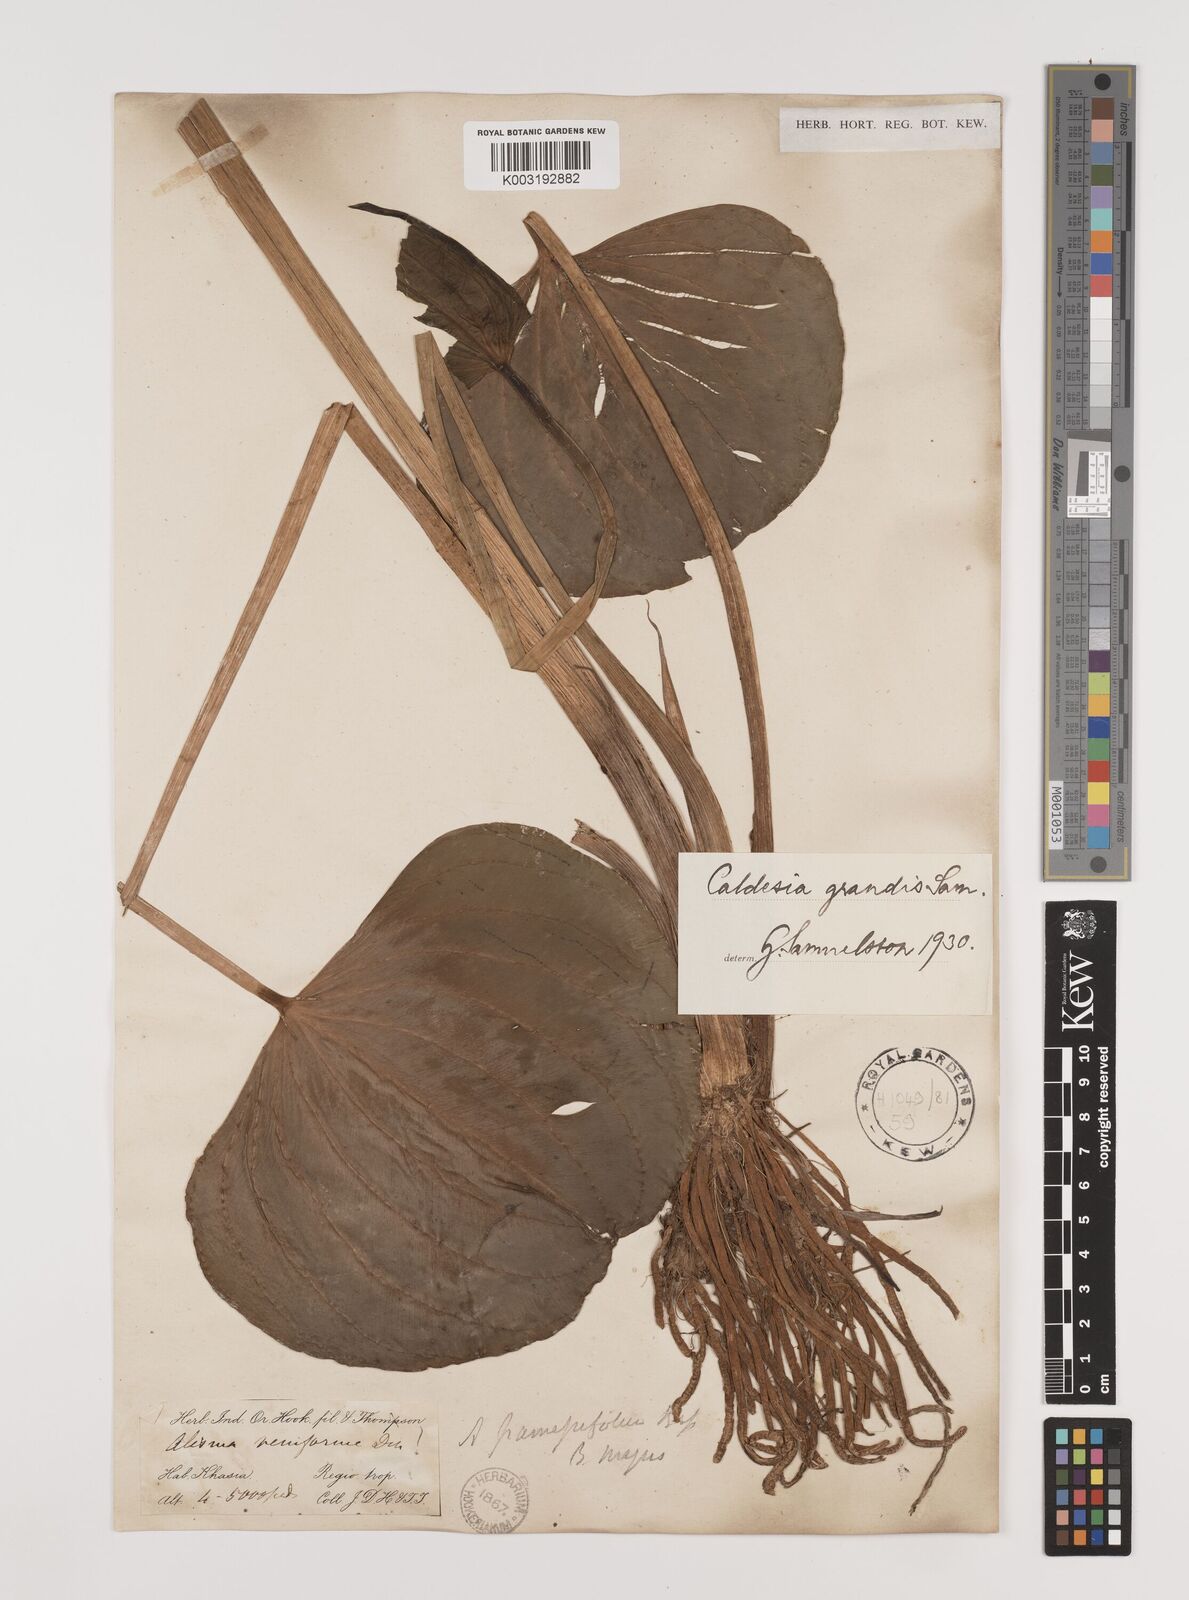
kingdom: Plantae
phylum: Tracheophyta
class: Liliopsida
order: Alismatales
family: Alismataceae
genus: Caldesia
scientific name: Caldesia grandis
